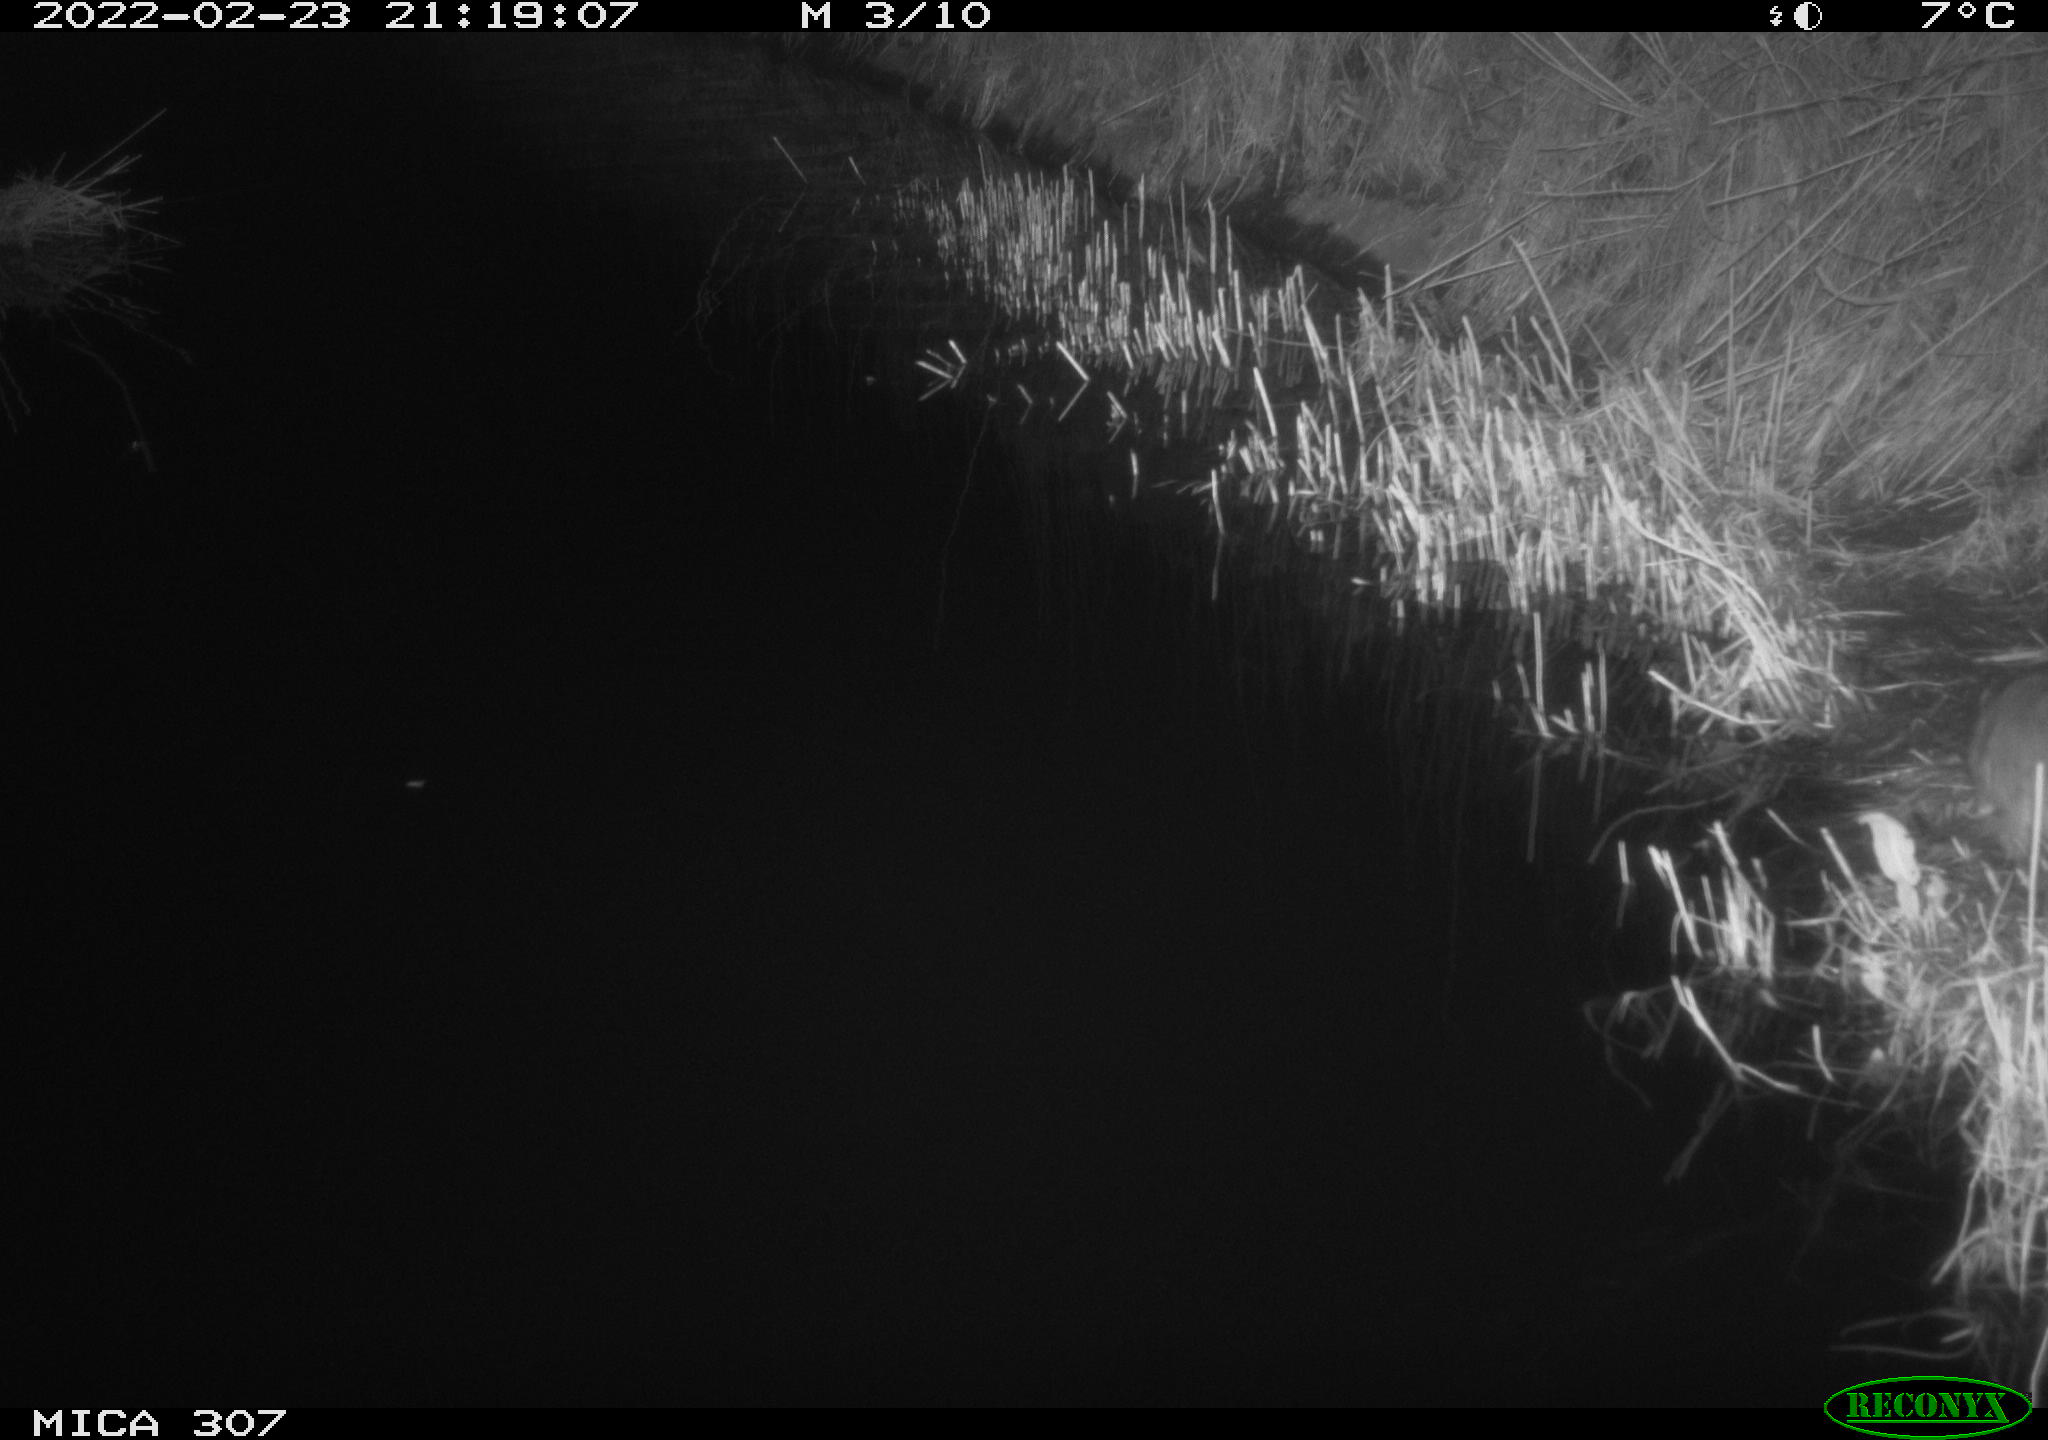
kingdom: Animalia
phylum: Chordata
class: Mammalia
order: Rodentia
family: Muridae
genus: Rattus
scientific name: Rattus norvegicus
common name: Brown rat
